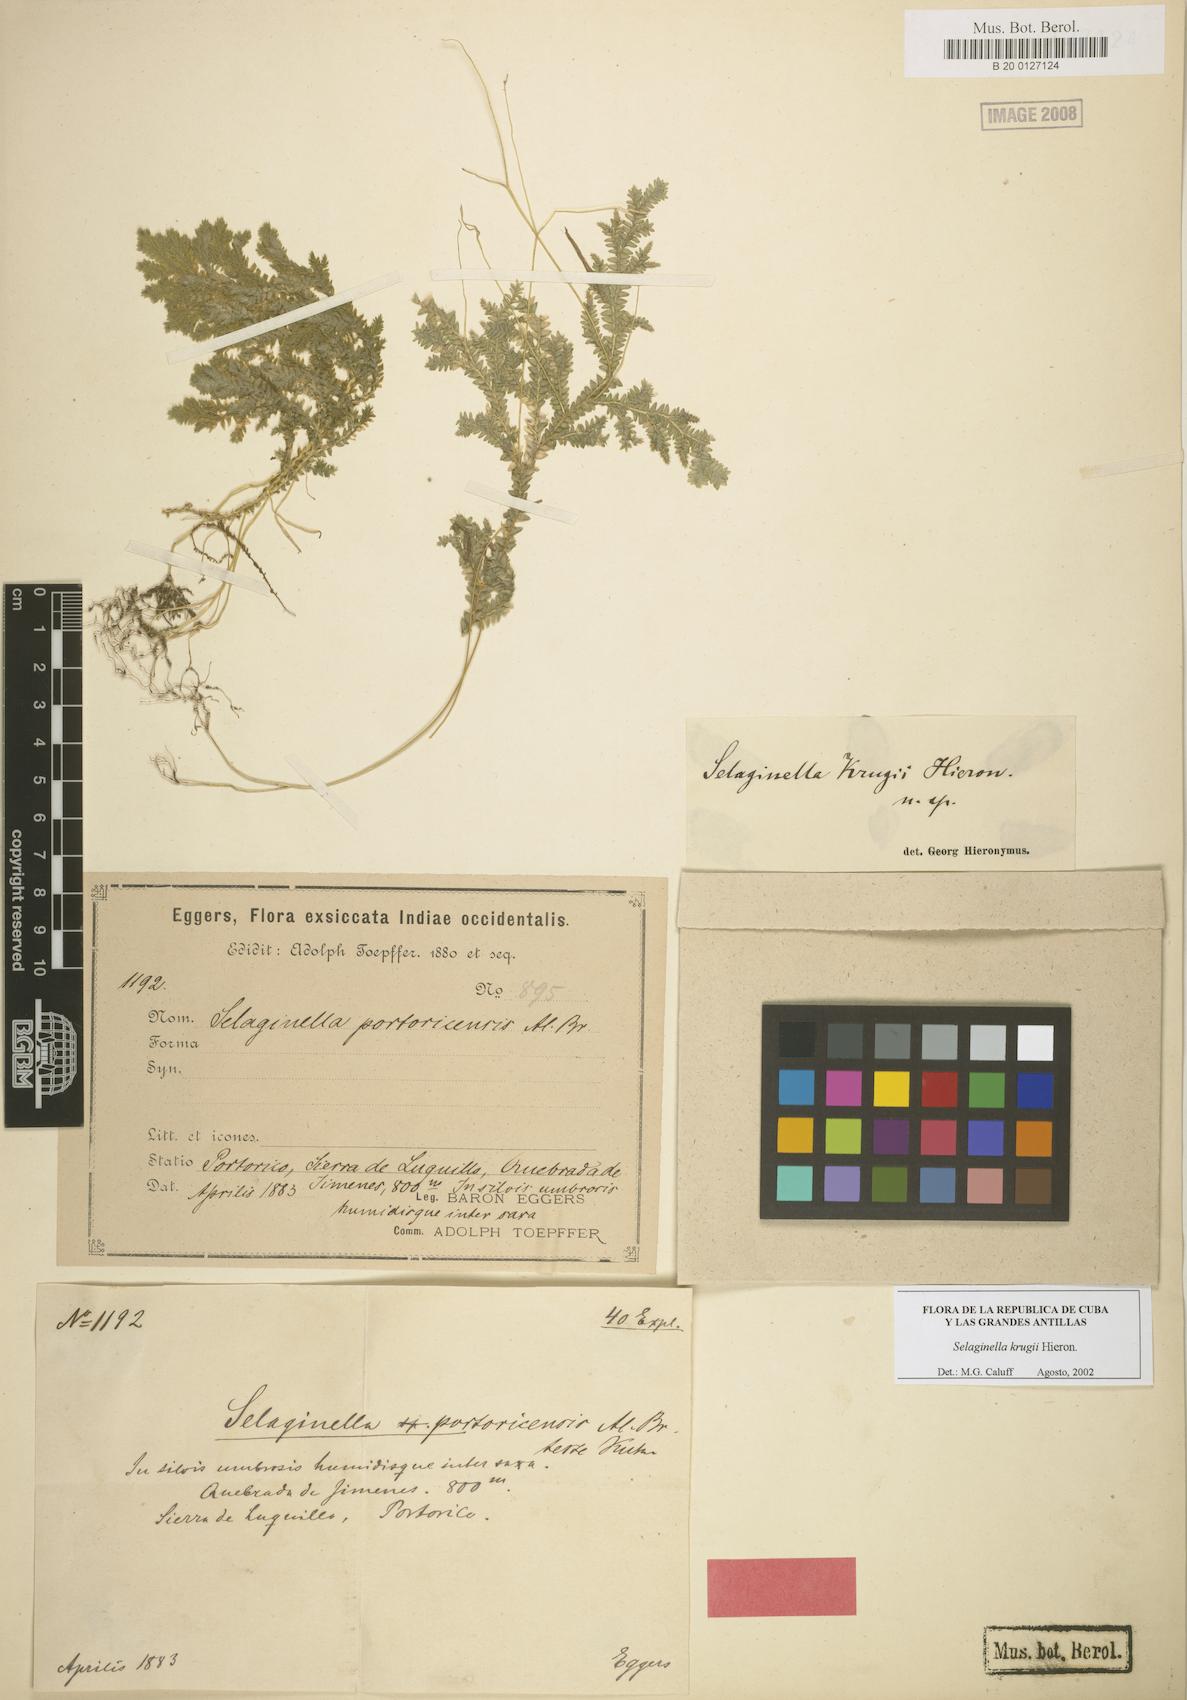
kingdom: Plantae
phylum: Tracheophyta
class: Lycopodiopsida
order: Selaginellales
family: Selaginellaceae
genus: Selaginella
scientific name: Selaginella krugii
